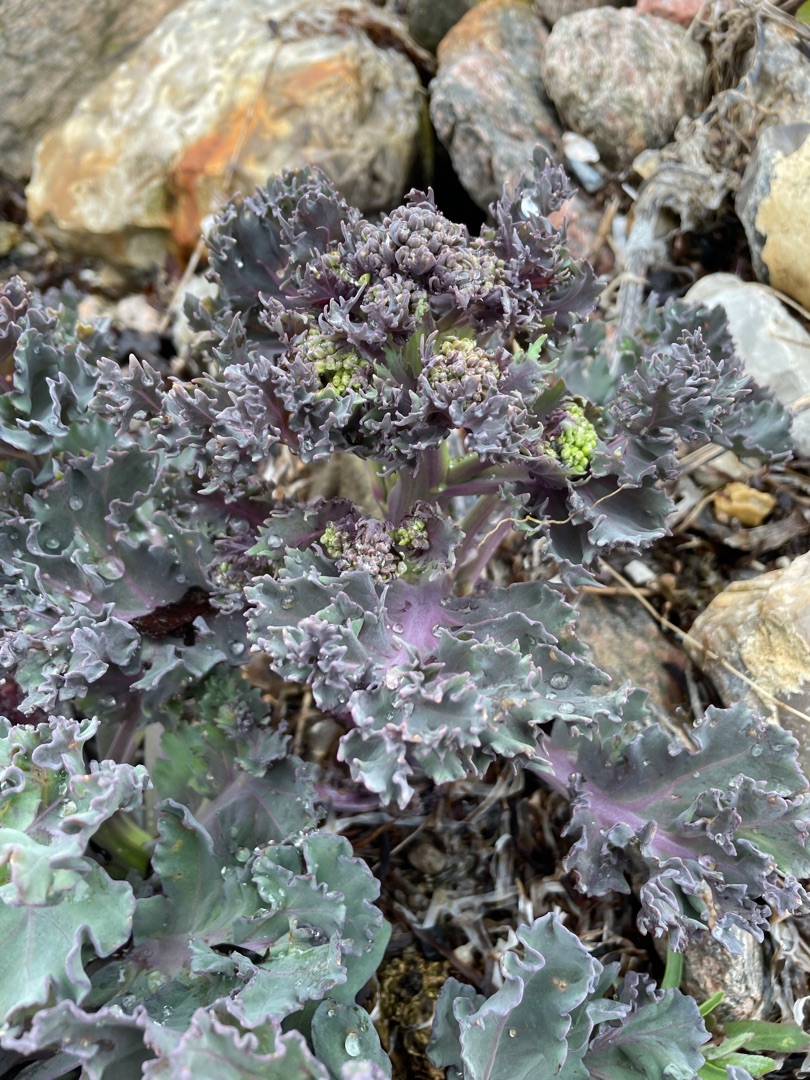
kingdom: Plantae
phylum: Tracheophyta
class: Magnoliopsida
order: Brassicales
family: Brassicaceae
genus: Crambe
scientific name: Crambe maritima
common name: Strandkål
